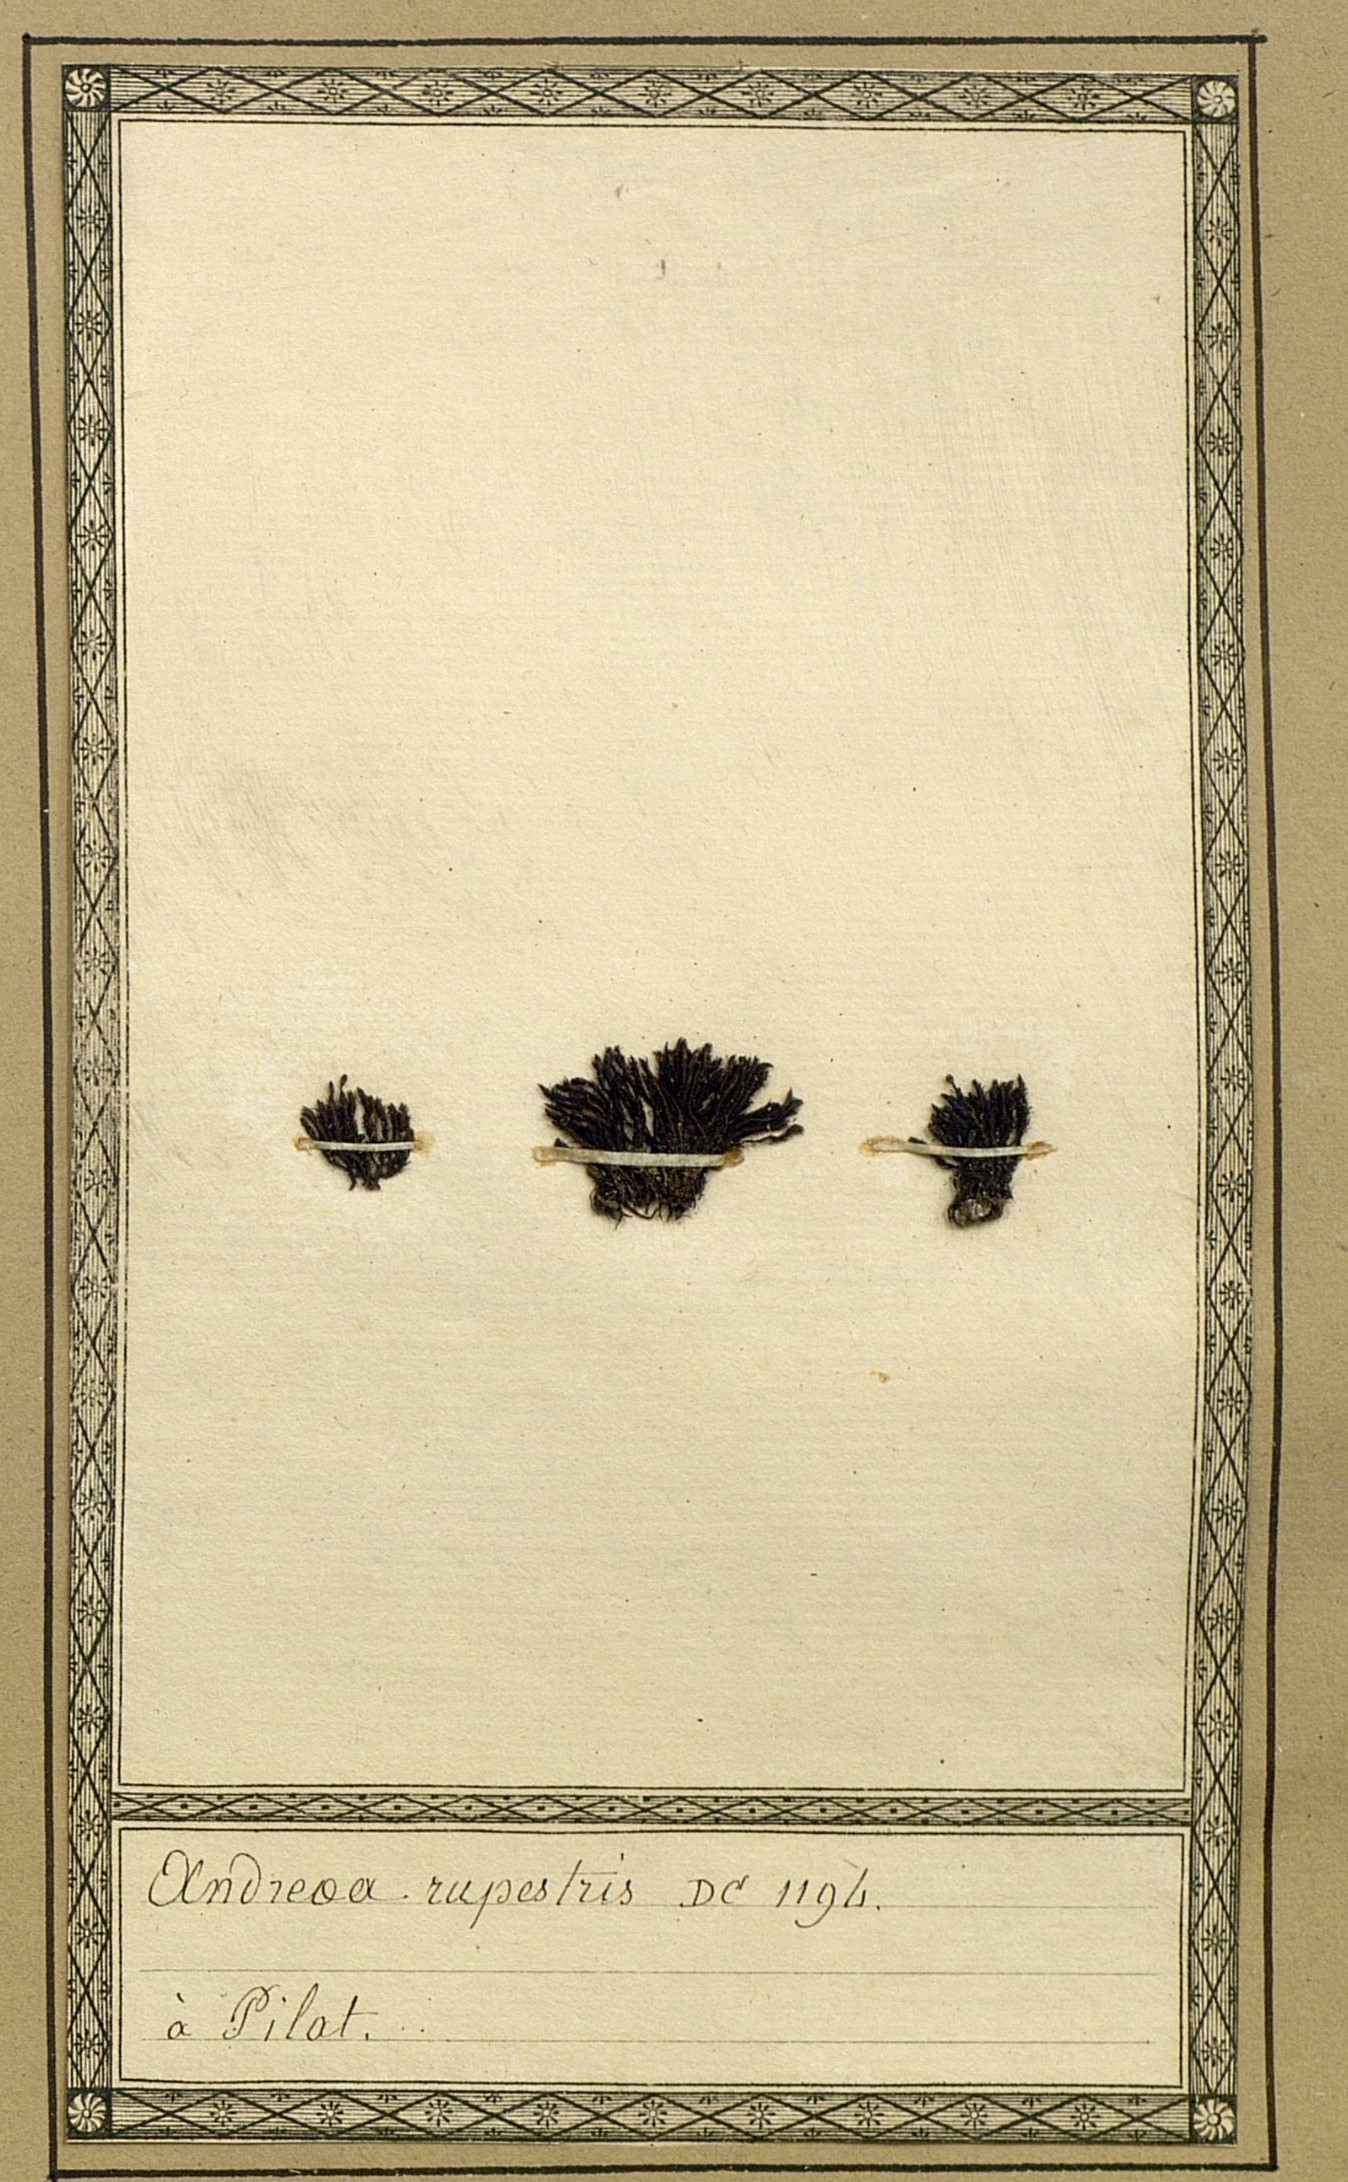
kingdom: Plantae
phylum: Bryophyta
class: Andreaeopsida
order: Andreaeales
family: Andreaeaceae
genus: Andreaea
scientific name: Andreaea rupestris
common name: Black rock moss
